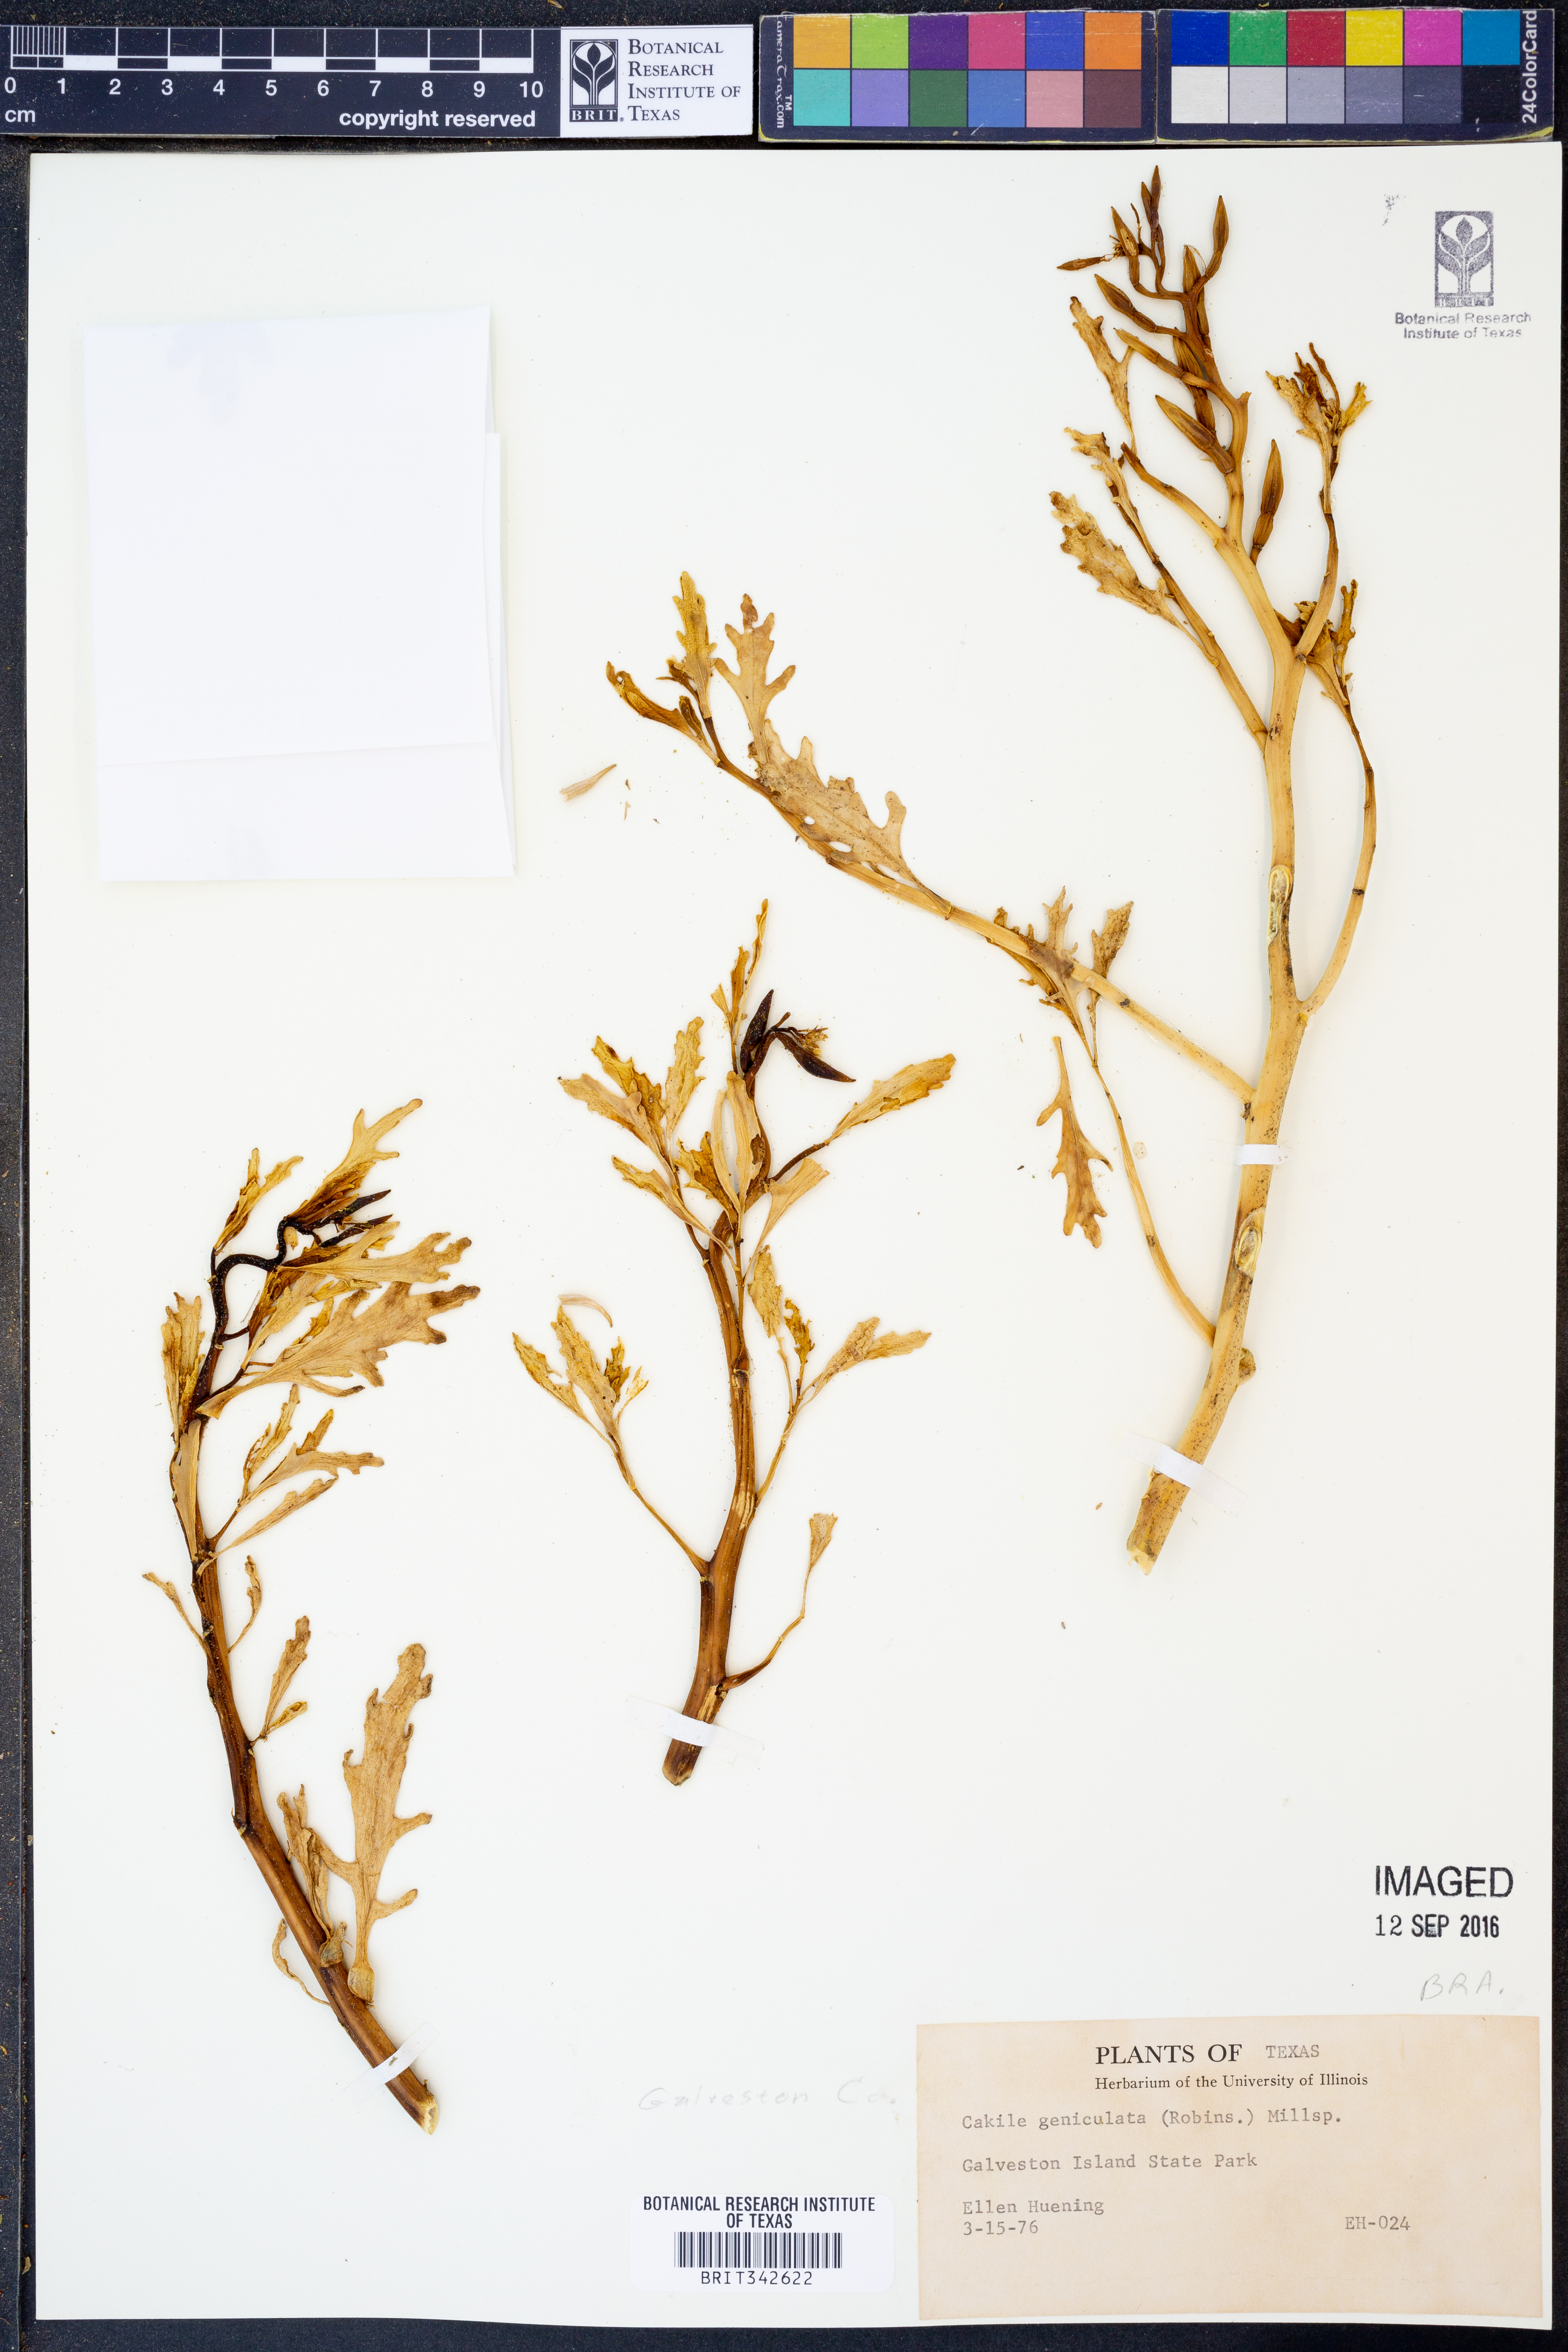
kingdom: Plantae
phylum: Tracheophyta
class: Magnoliopsida
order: Brassicales
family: Brassicaceae
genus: Cakile
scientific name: Cakile geniculata
